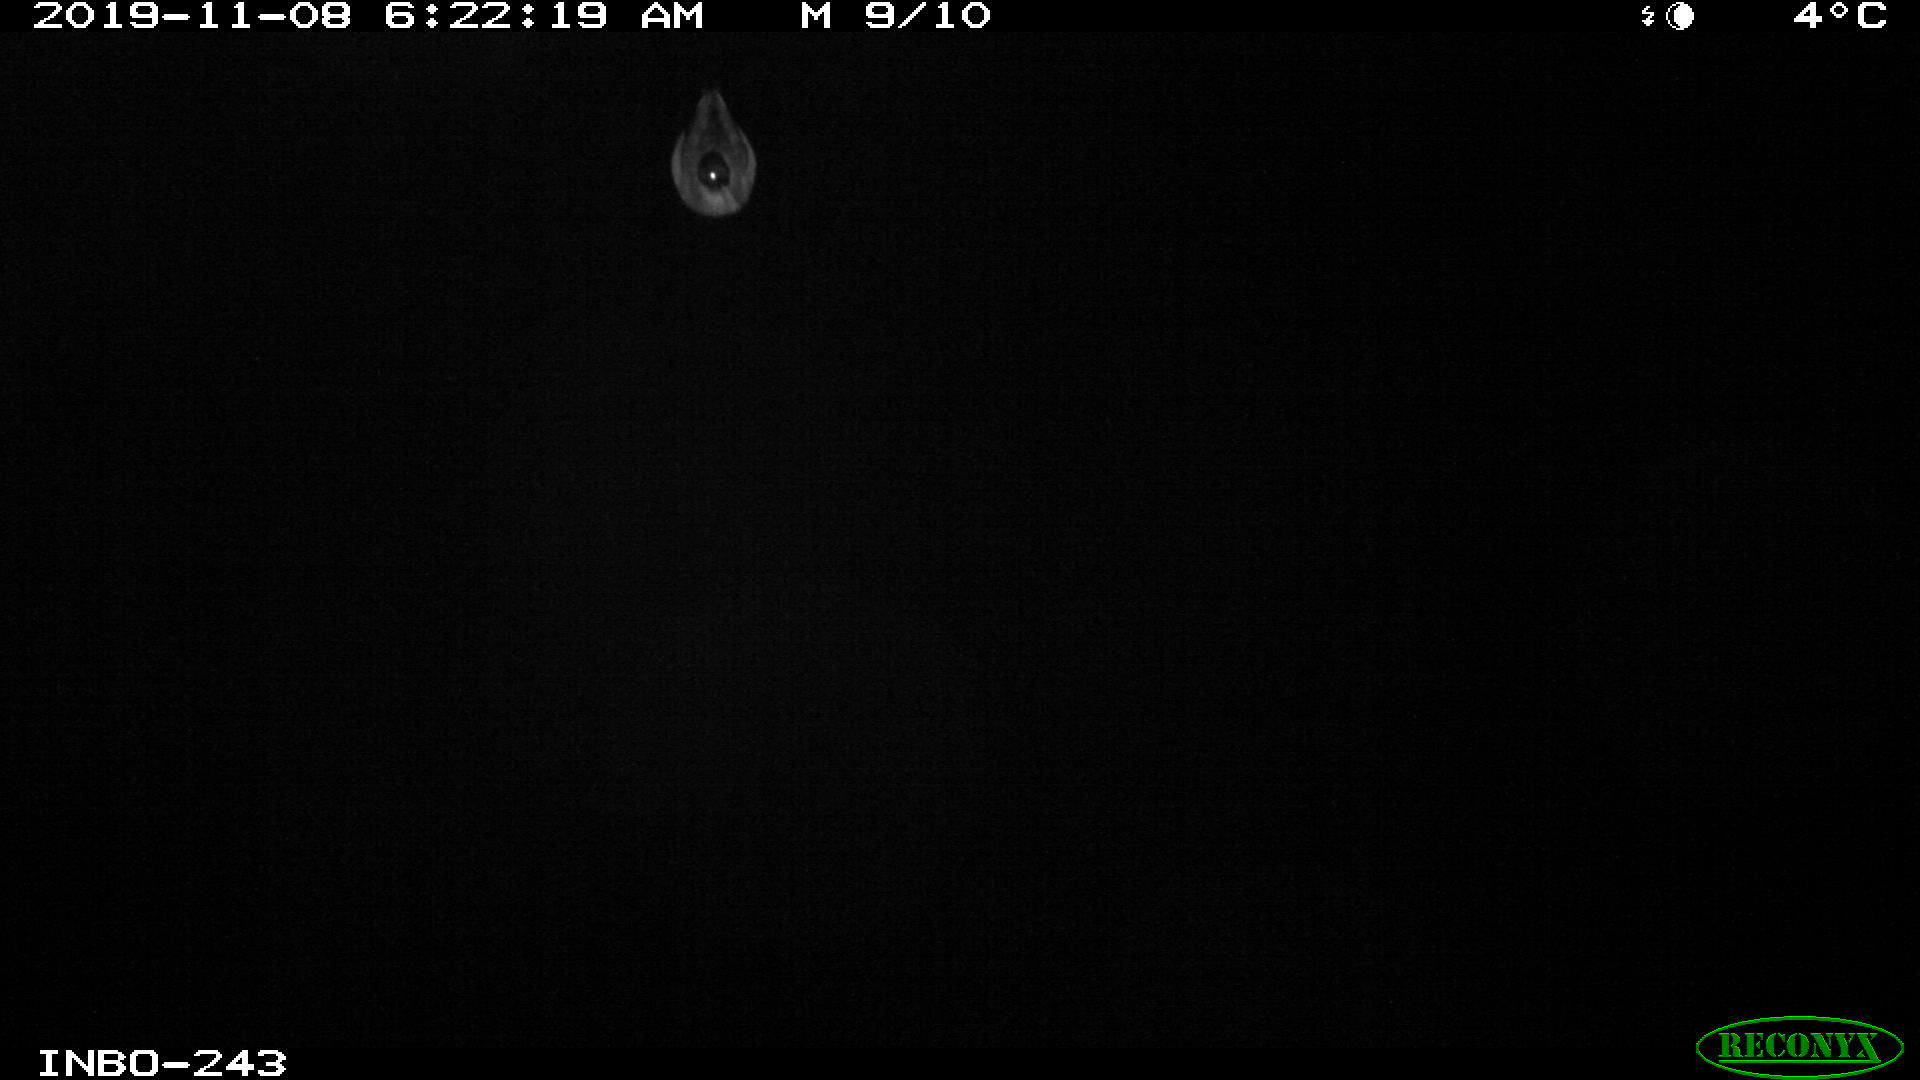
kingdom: Animalia
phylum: Chordata
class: Aves
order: Anseriformes
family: Anatidae
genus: Anas
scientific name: Anas platyrhynchos
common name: Mallard
